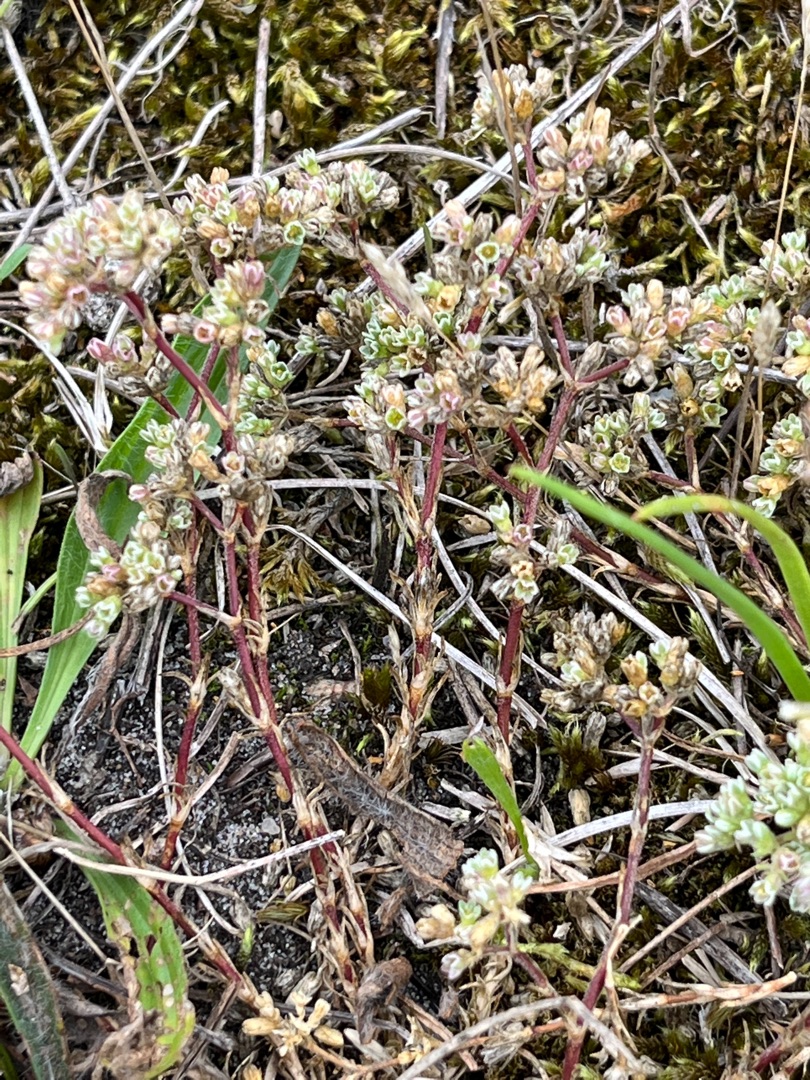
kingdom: Plantae
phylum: Tracheophyta
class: Magnoliopsida
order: Caryophyllales
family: Caryophyllaceae
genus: Scleranthus
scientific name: Scleranthus perennis
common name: Flerårig knavel
